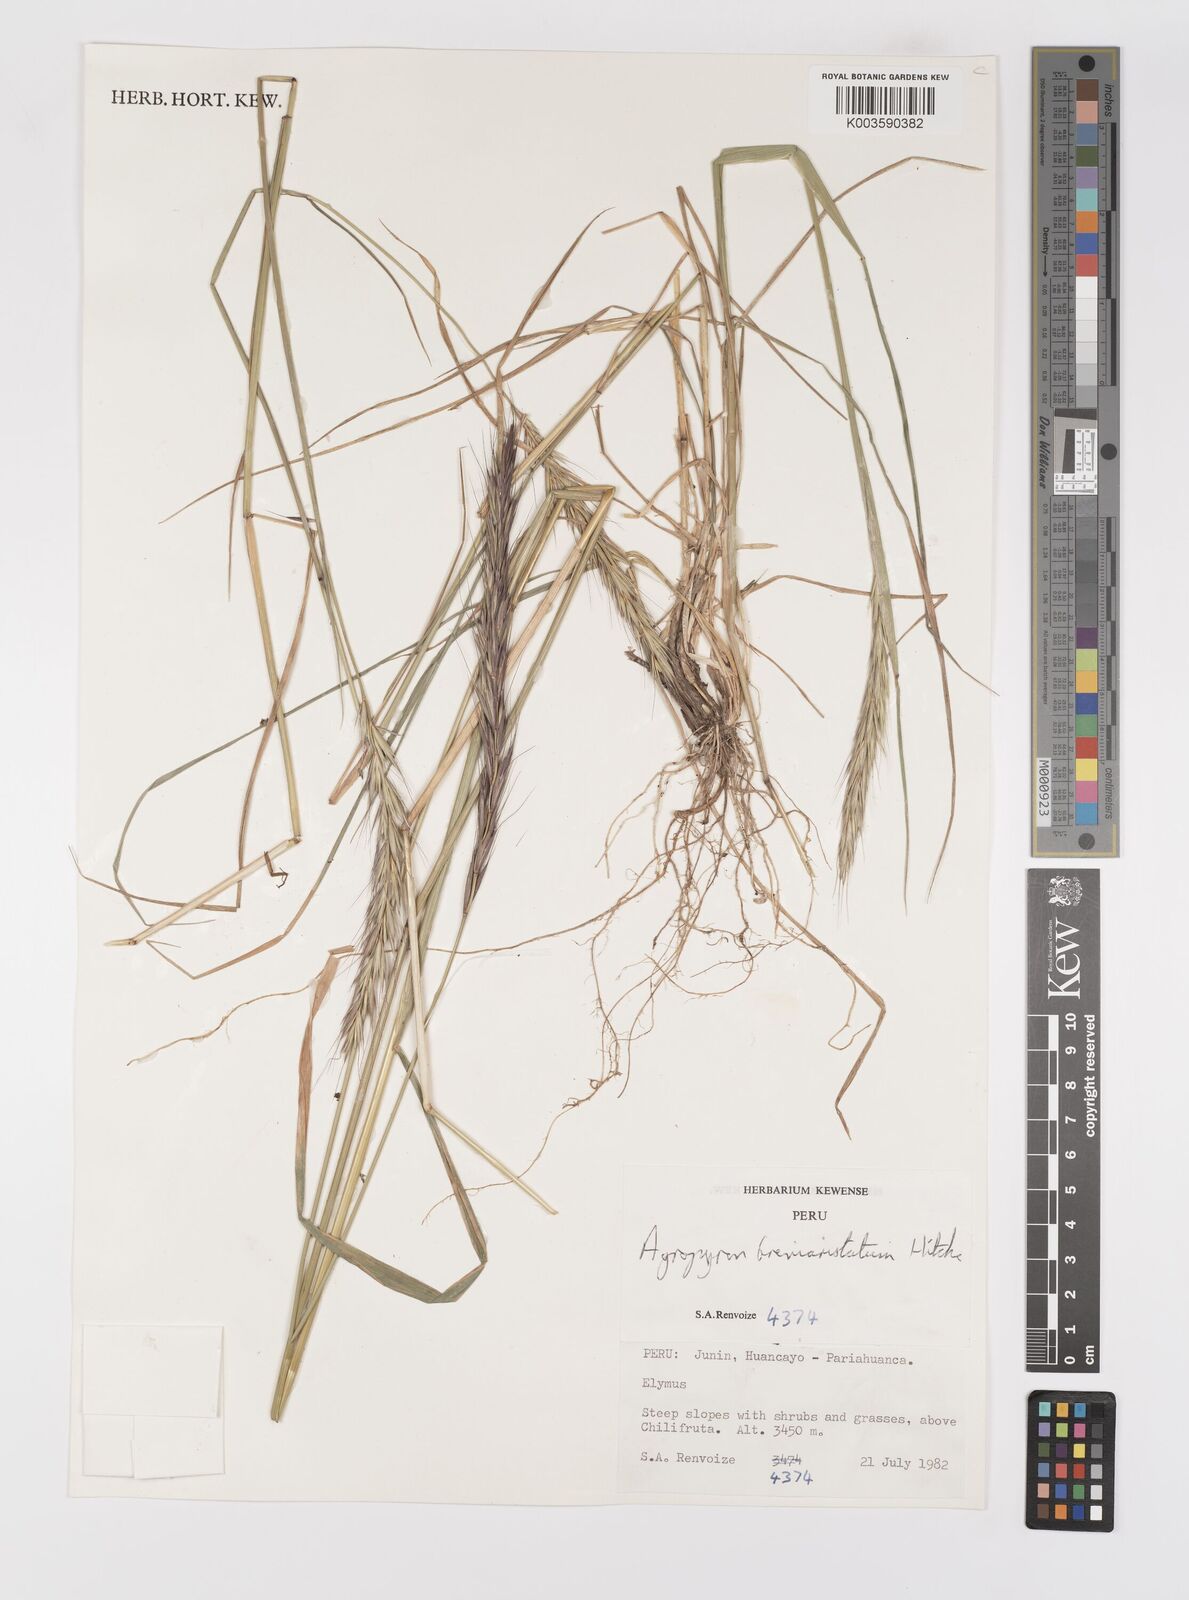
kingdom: Plantae
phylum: Tracheophyta
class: Liliopsida
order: Poales
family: Poaceae
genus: Elymus
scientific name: Elymus angulatus
